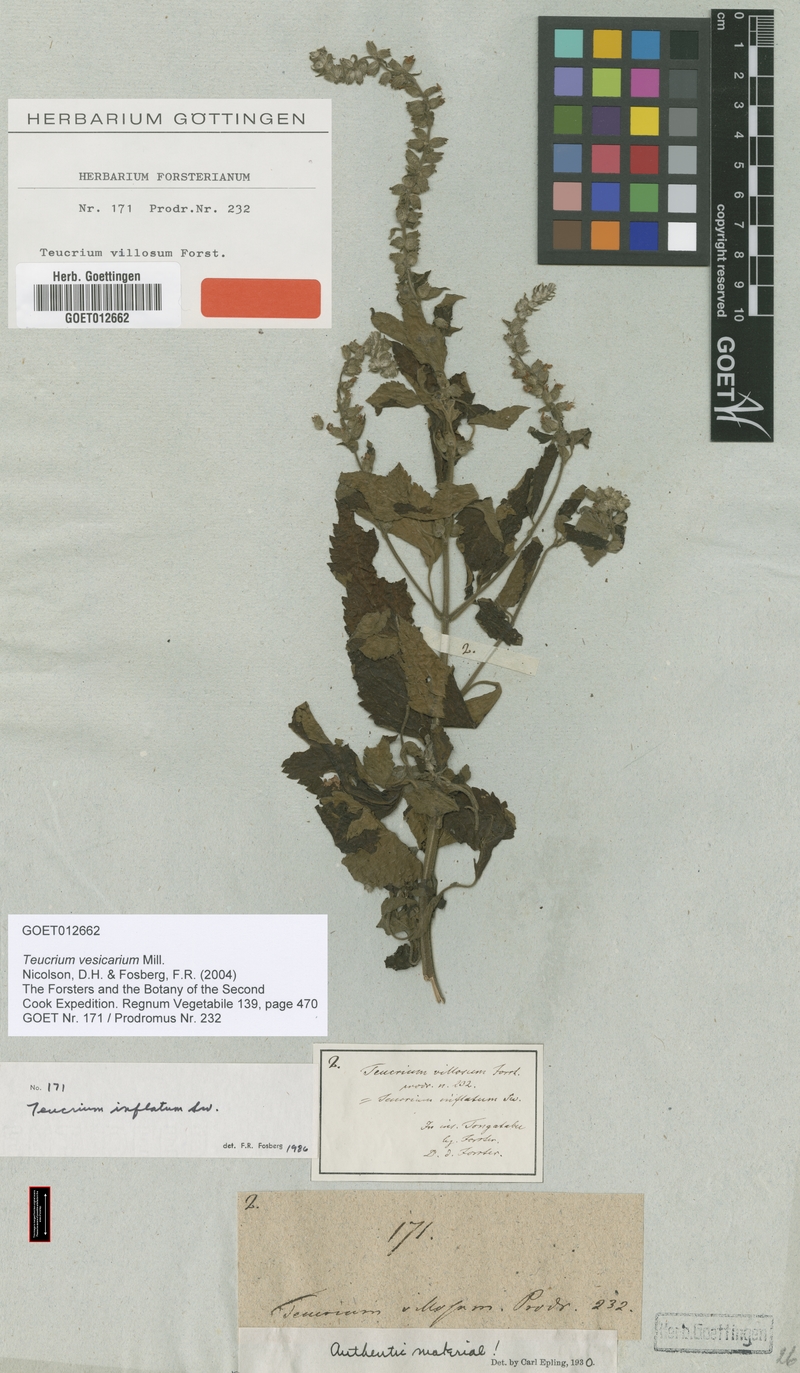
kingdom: Plantae
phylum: Tracheophyta
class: Magnoliopsida
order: Lamiales
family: Lamiaceae
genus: Teucrium
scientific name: Teucrium vesicarium
